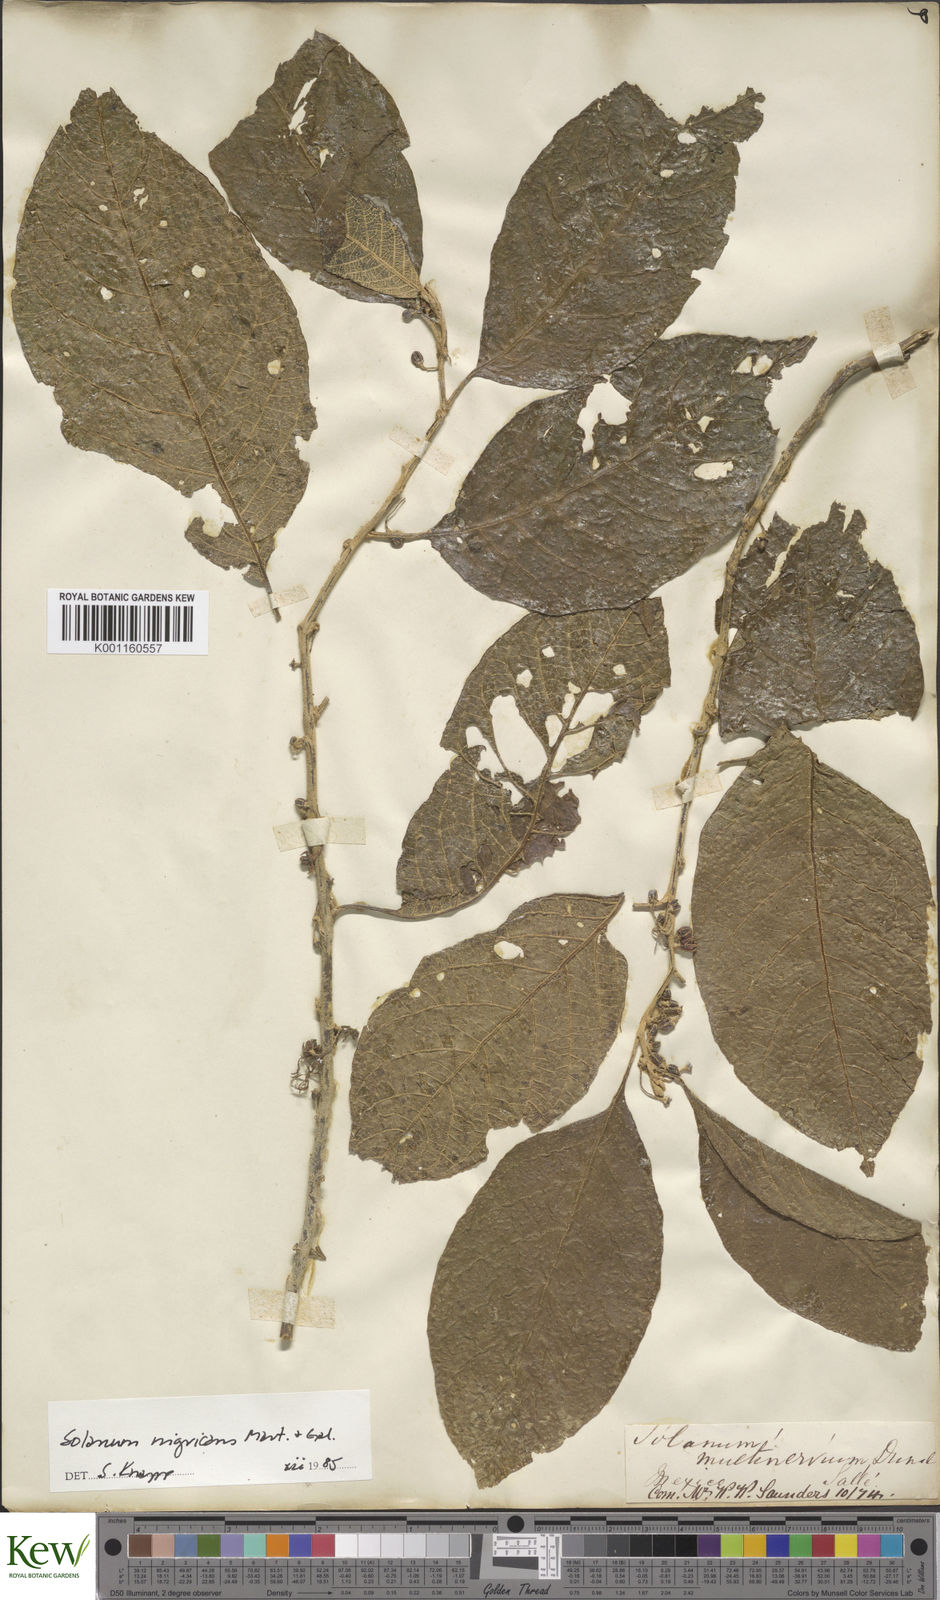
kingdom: Plantae
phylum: Tracheophyta
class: Magnoliopsida
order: Solanales
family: Solanaceae
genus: Solanum
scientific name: Solanum nigricans
